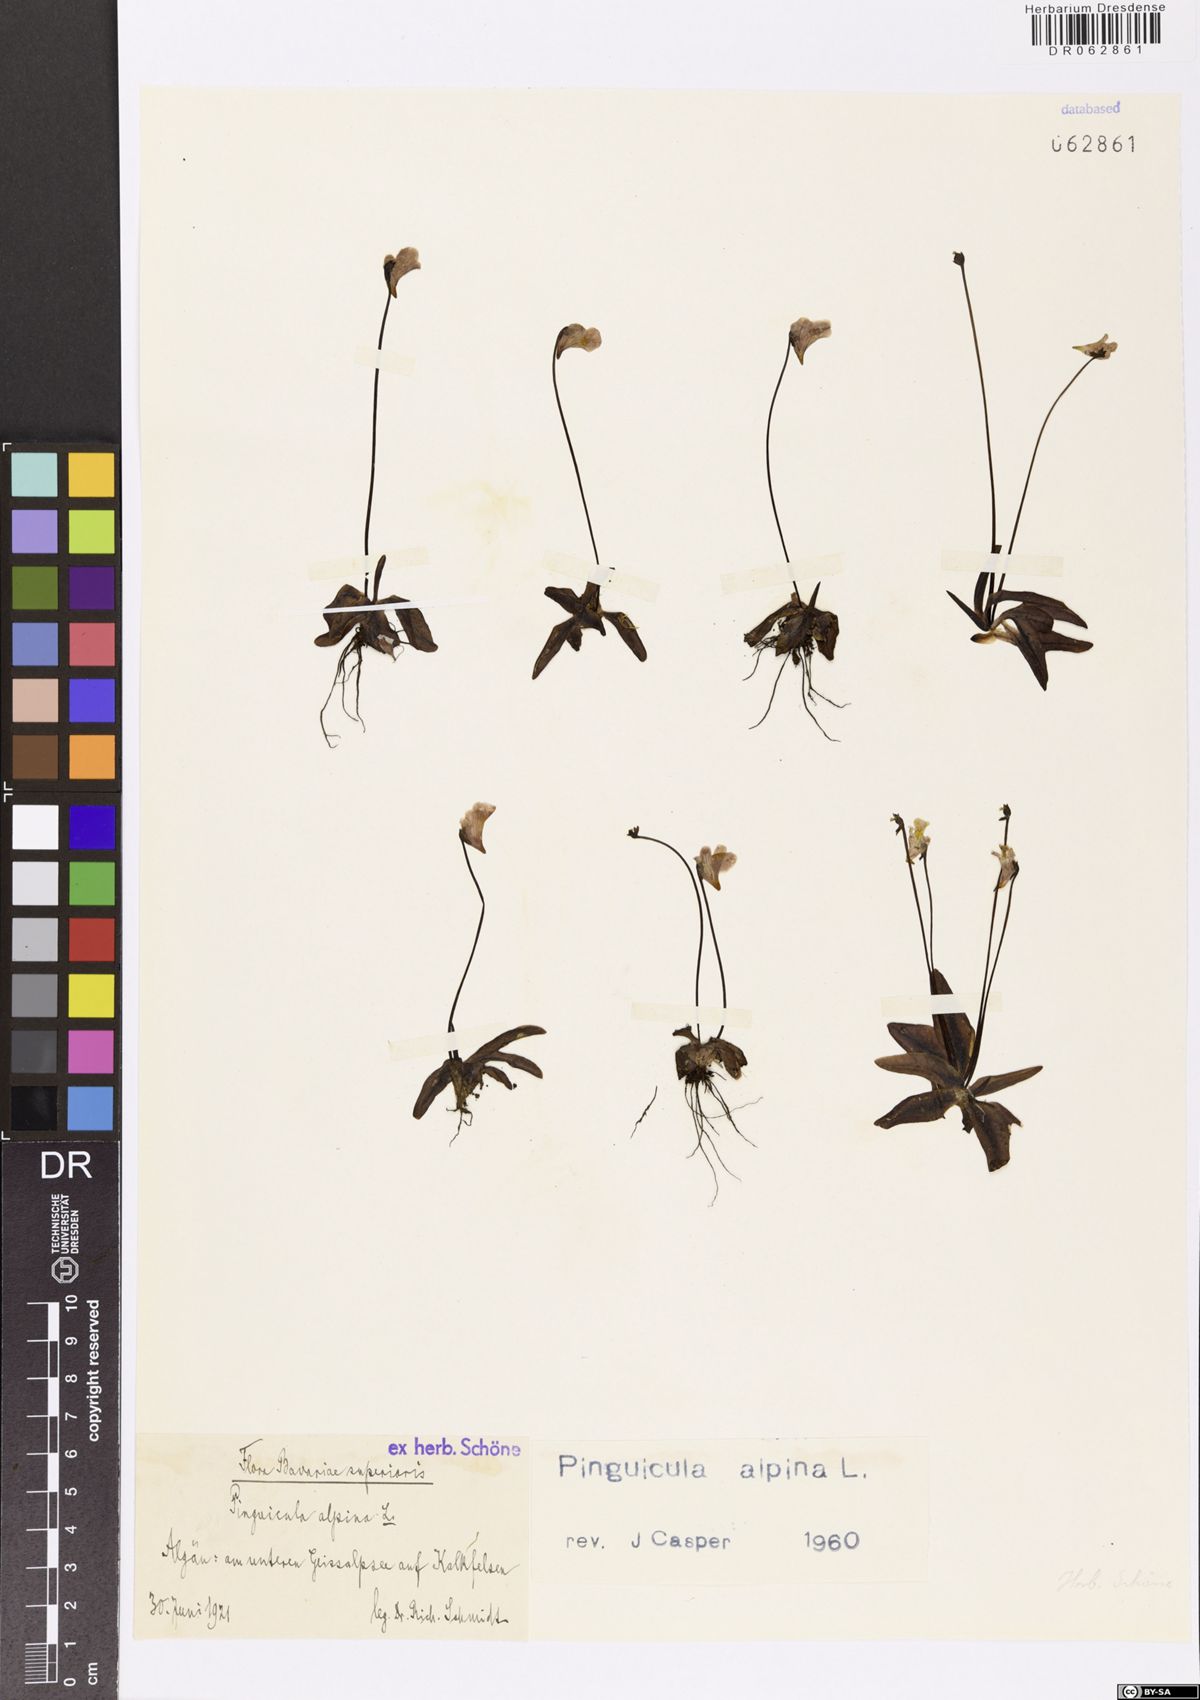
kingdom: Plantae
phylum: Tracheophyta
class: Magnoliopsida
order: Lamiales
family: Lentibulariaceae
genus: Pinguicula
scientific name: Pinguicula alpina
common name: Alpine butterwort
